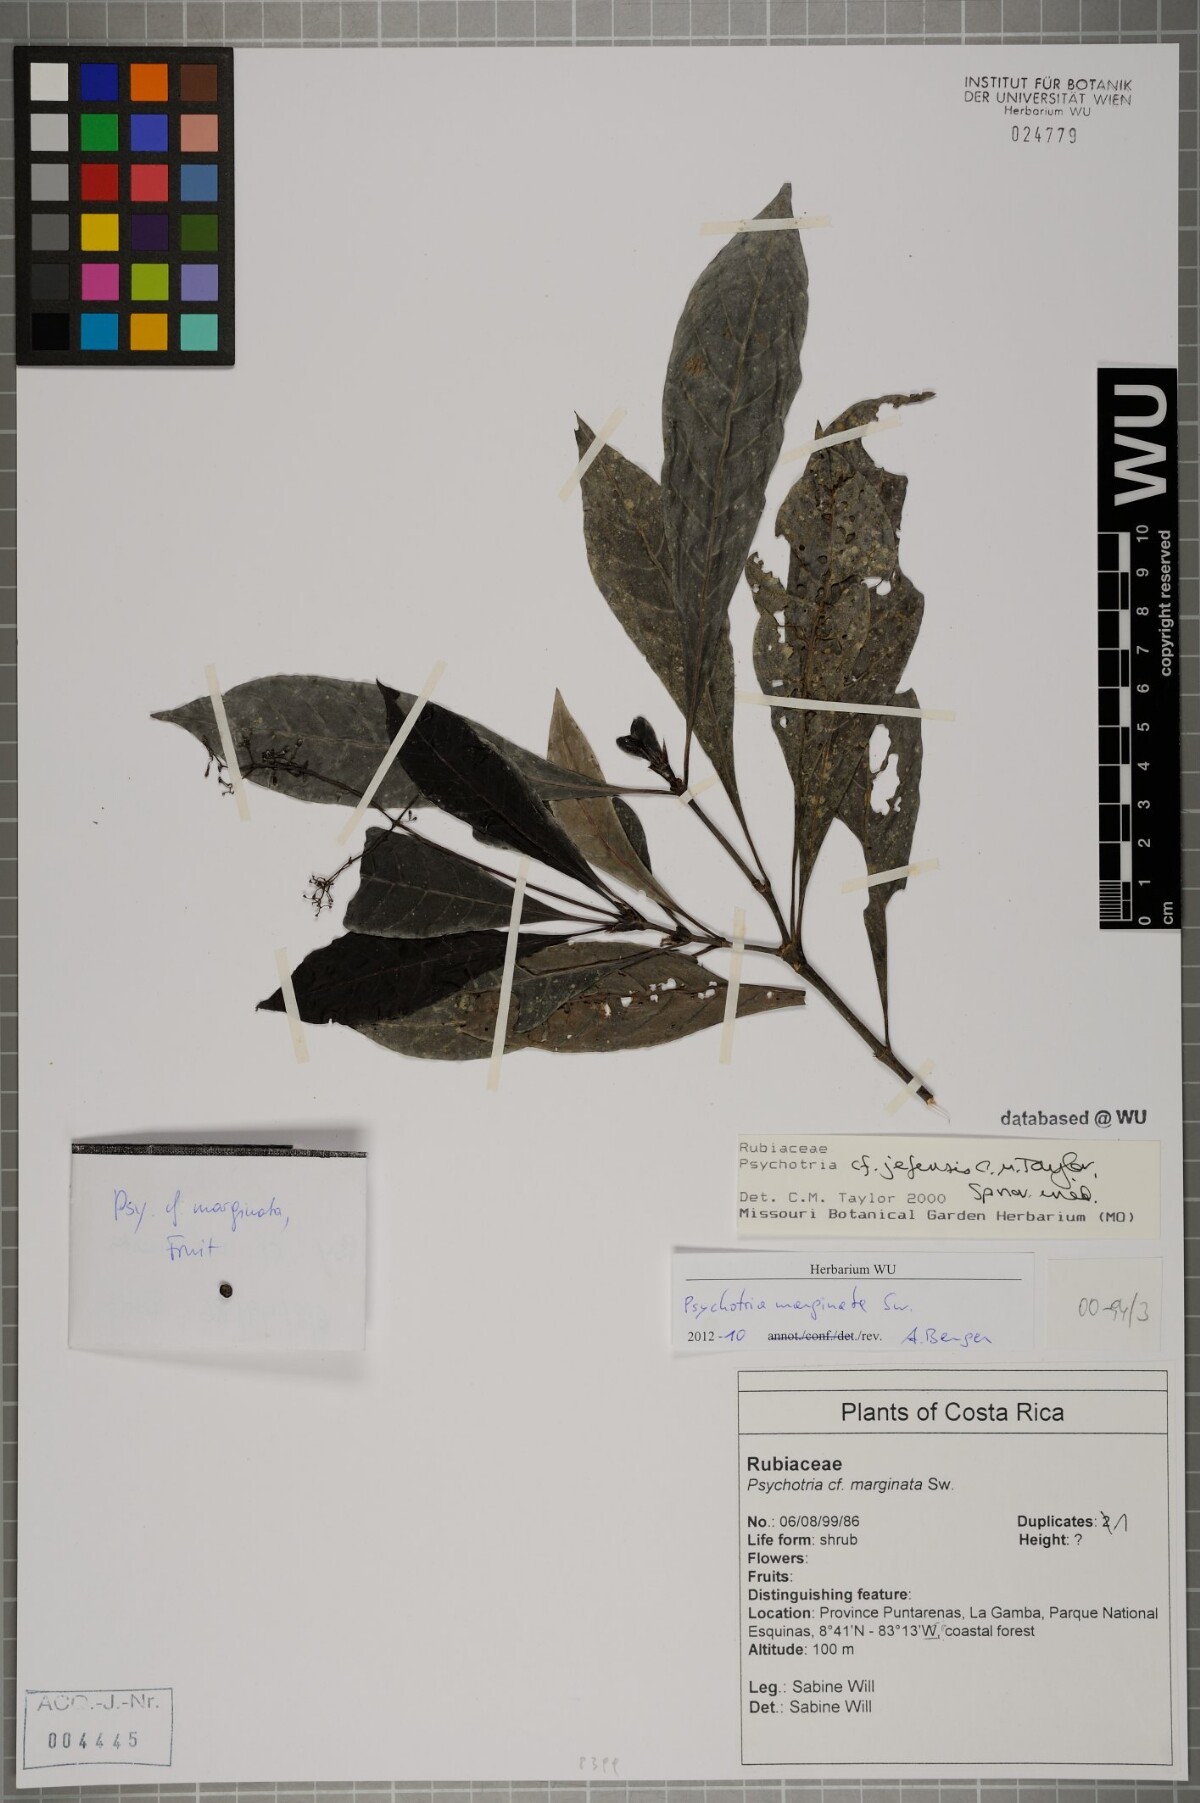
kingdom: Plantae
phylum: Tracheophyta
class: Magnoliopsida
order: Gentianales
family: Rubiaceae
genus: Psychotria
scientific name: Psychotria marginata
